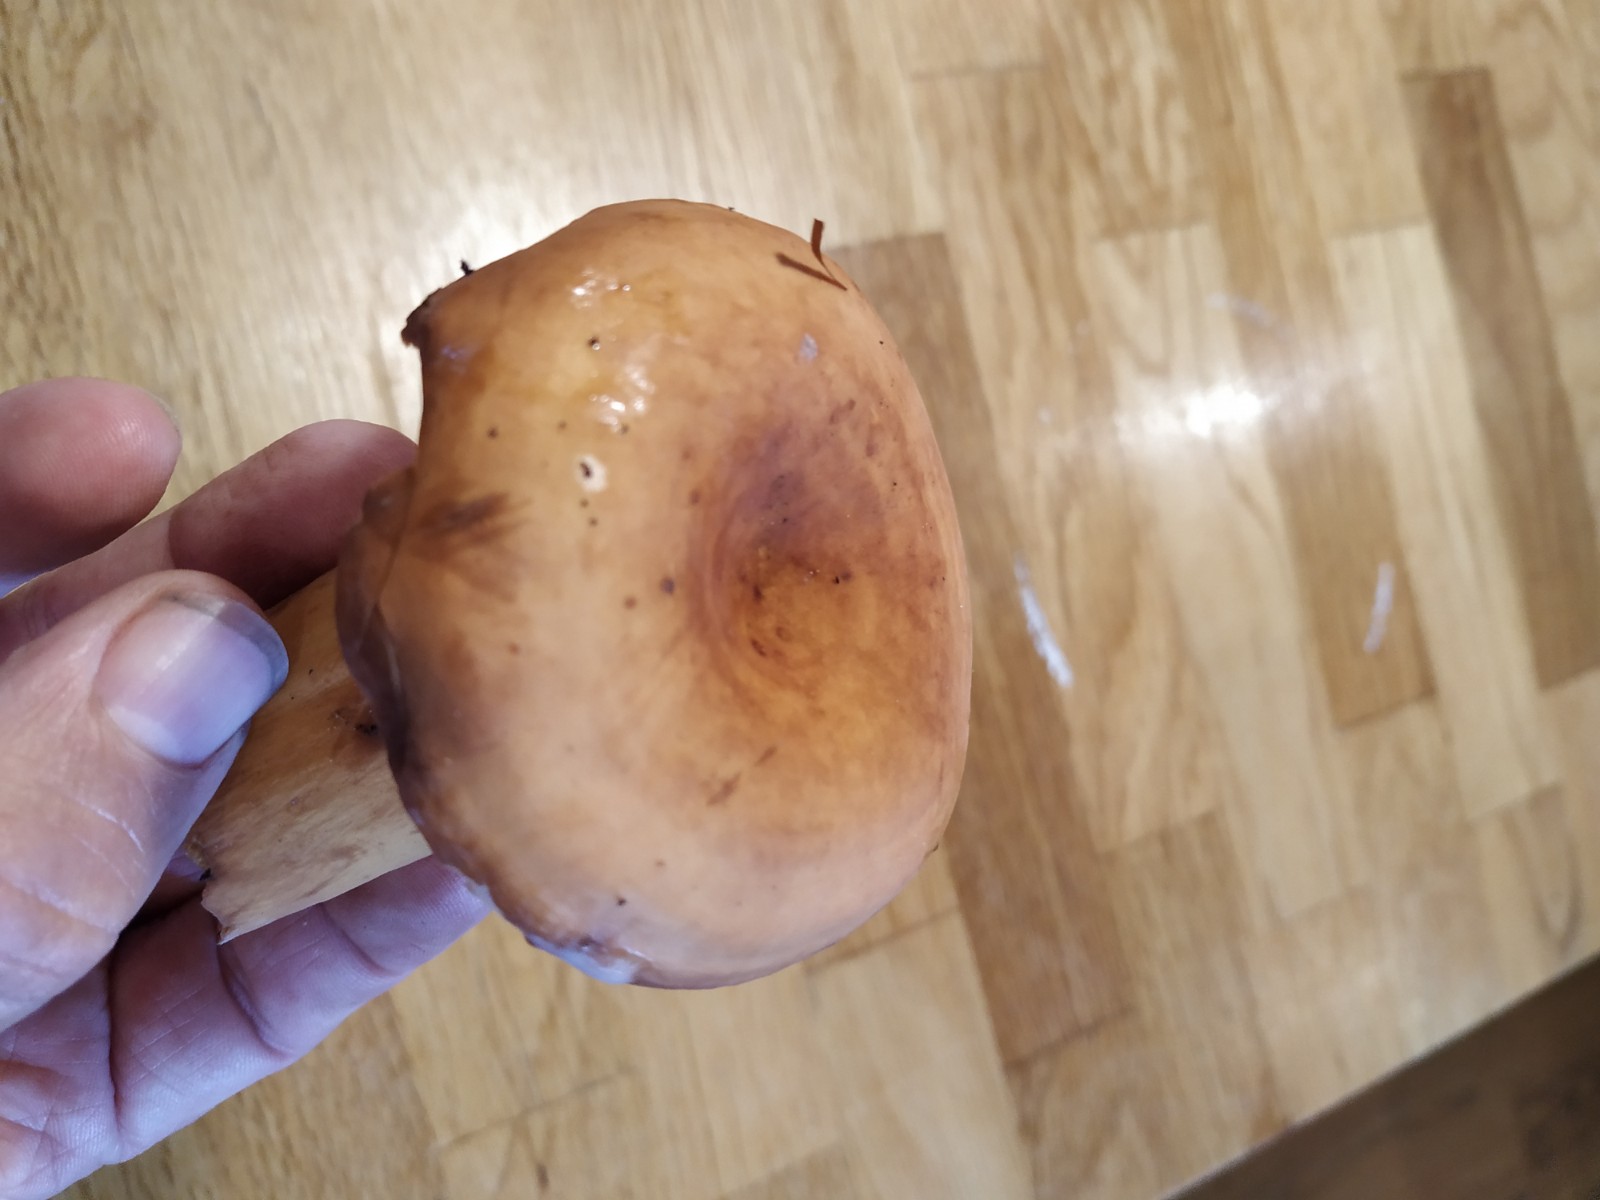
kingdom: Fungi
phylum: Basidiomycota
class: Agaricomycetes
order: Russulales
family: Russulaceae
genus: Lactifluus
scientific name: Lactifluus
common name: mælkehat
